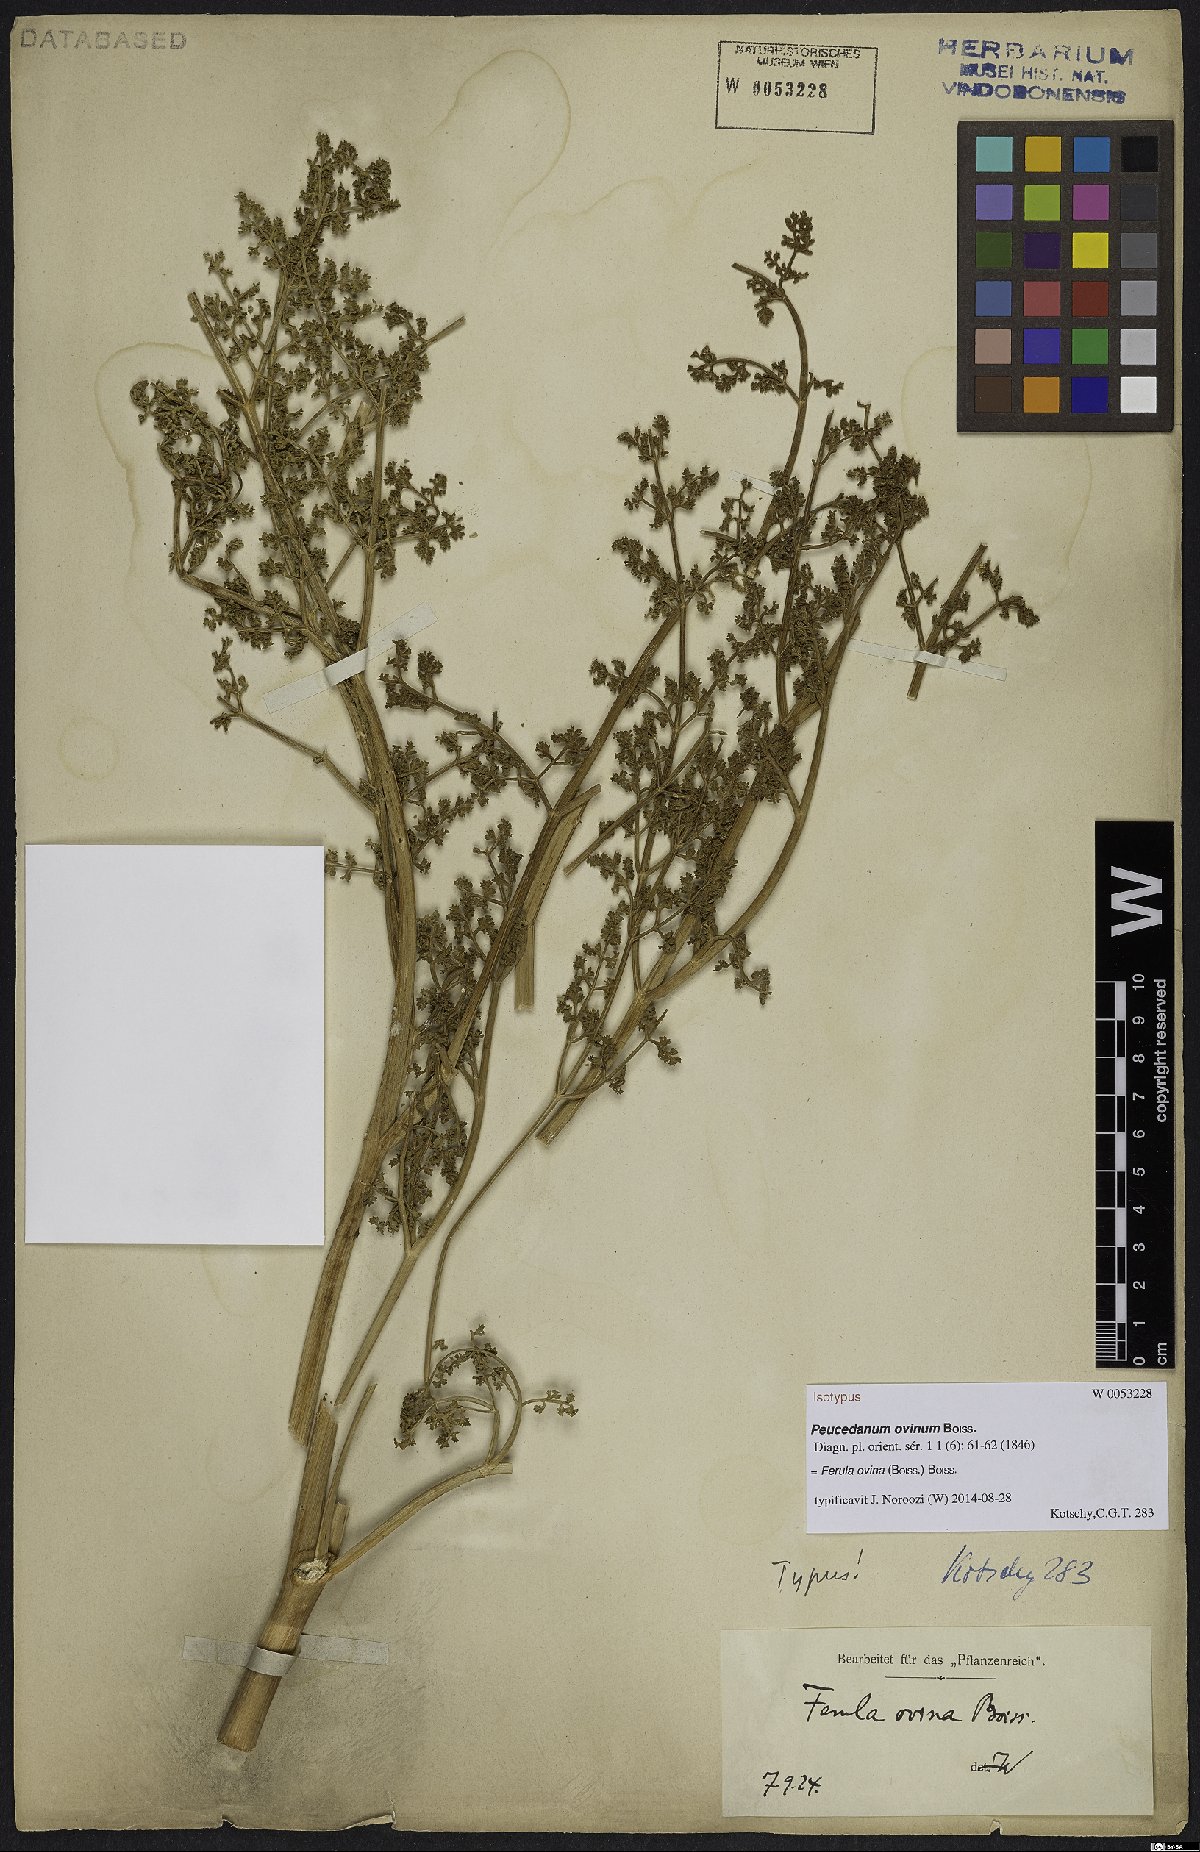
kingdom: Plantae
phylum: Tracheophyta
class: Magnoliopsida
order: Apiales
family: Apiaceae
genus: Ferula
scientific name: Ferula ovina
